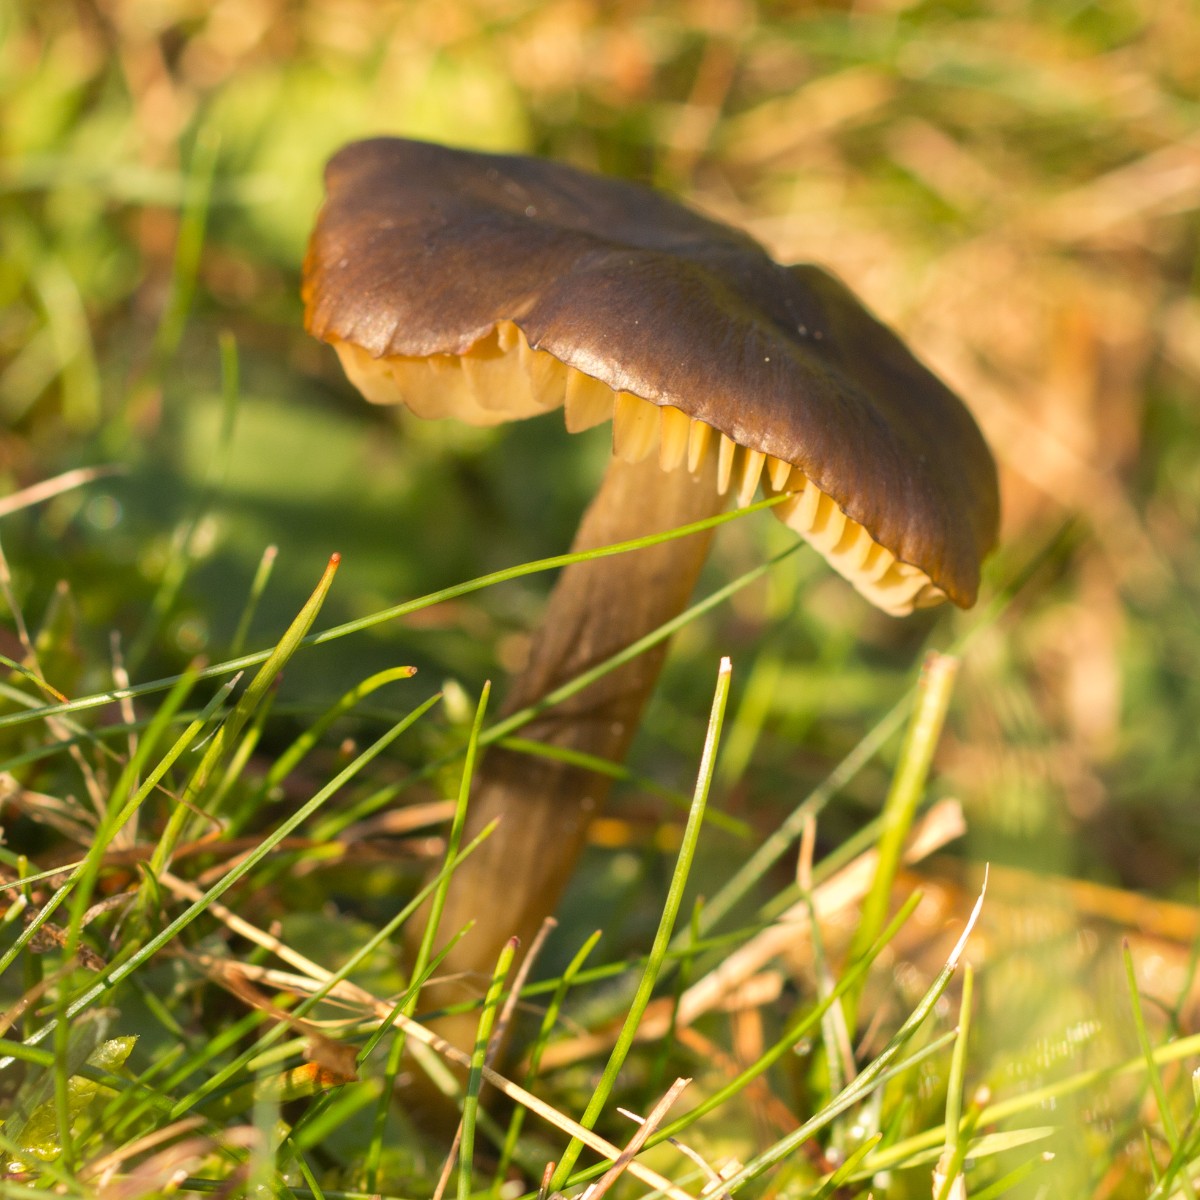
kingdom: Fungi
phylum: Basidiomycota
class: Agaricomycetes
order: Agaricales
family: Hygrophoraceae
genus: Hygrocybe
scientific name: Hygrocybe conica
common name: kegle-vokshat
